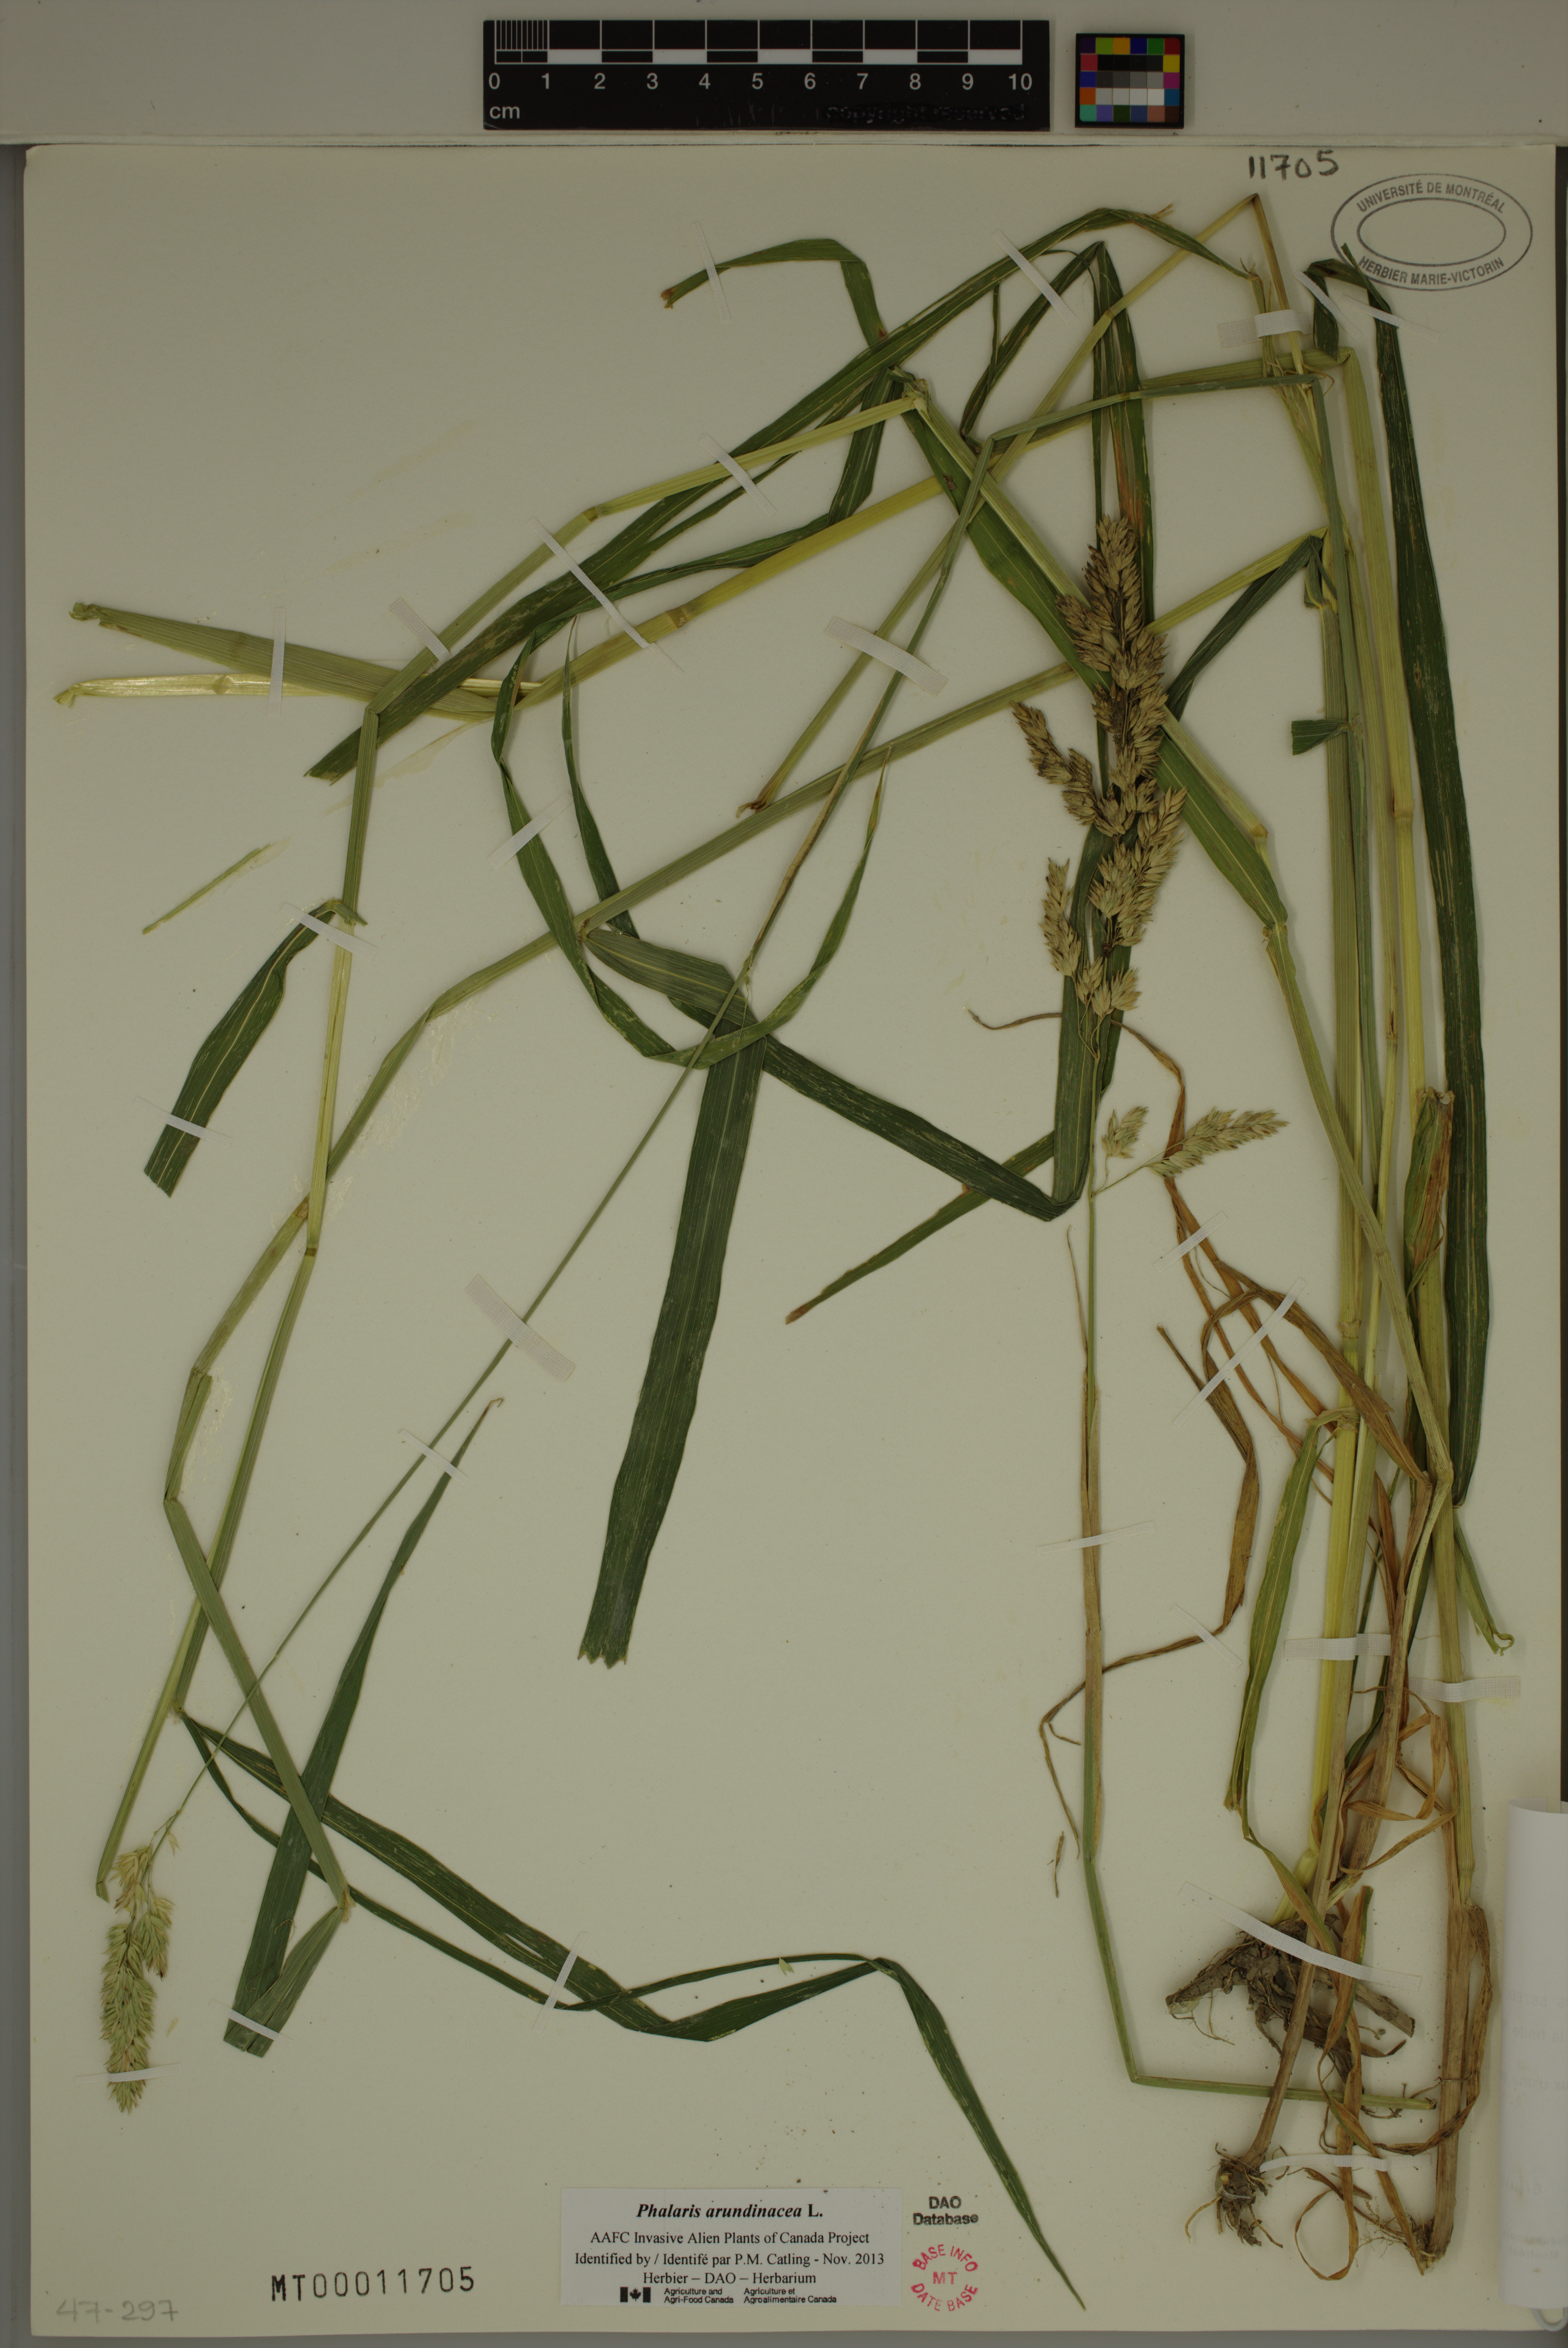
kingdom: Plantae
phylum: Tracheophyta
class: Liliopsida
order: Poales
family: Poaceae
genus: Phalaris
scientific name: Phalaris arundinacea
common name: Reed canary-grass
